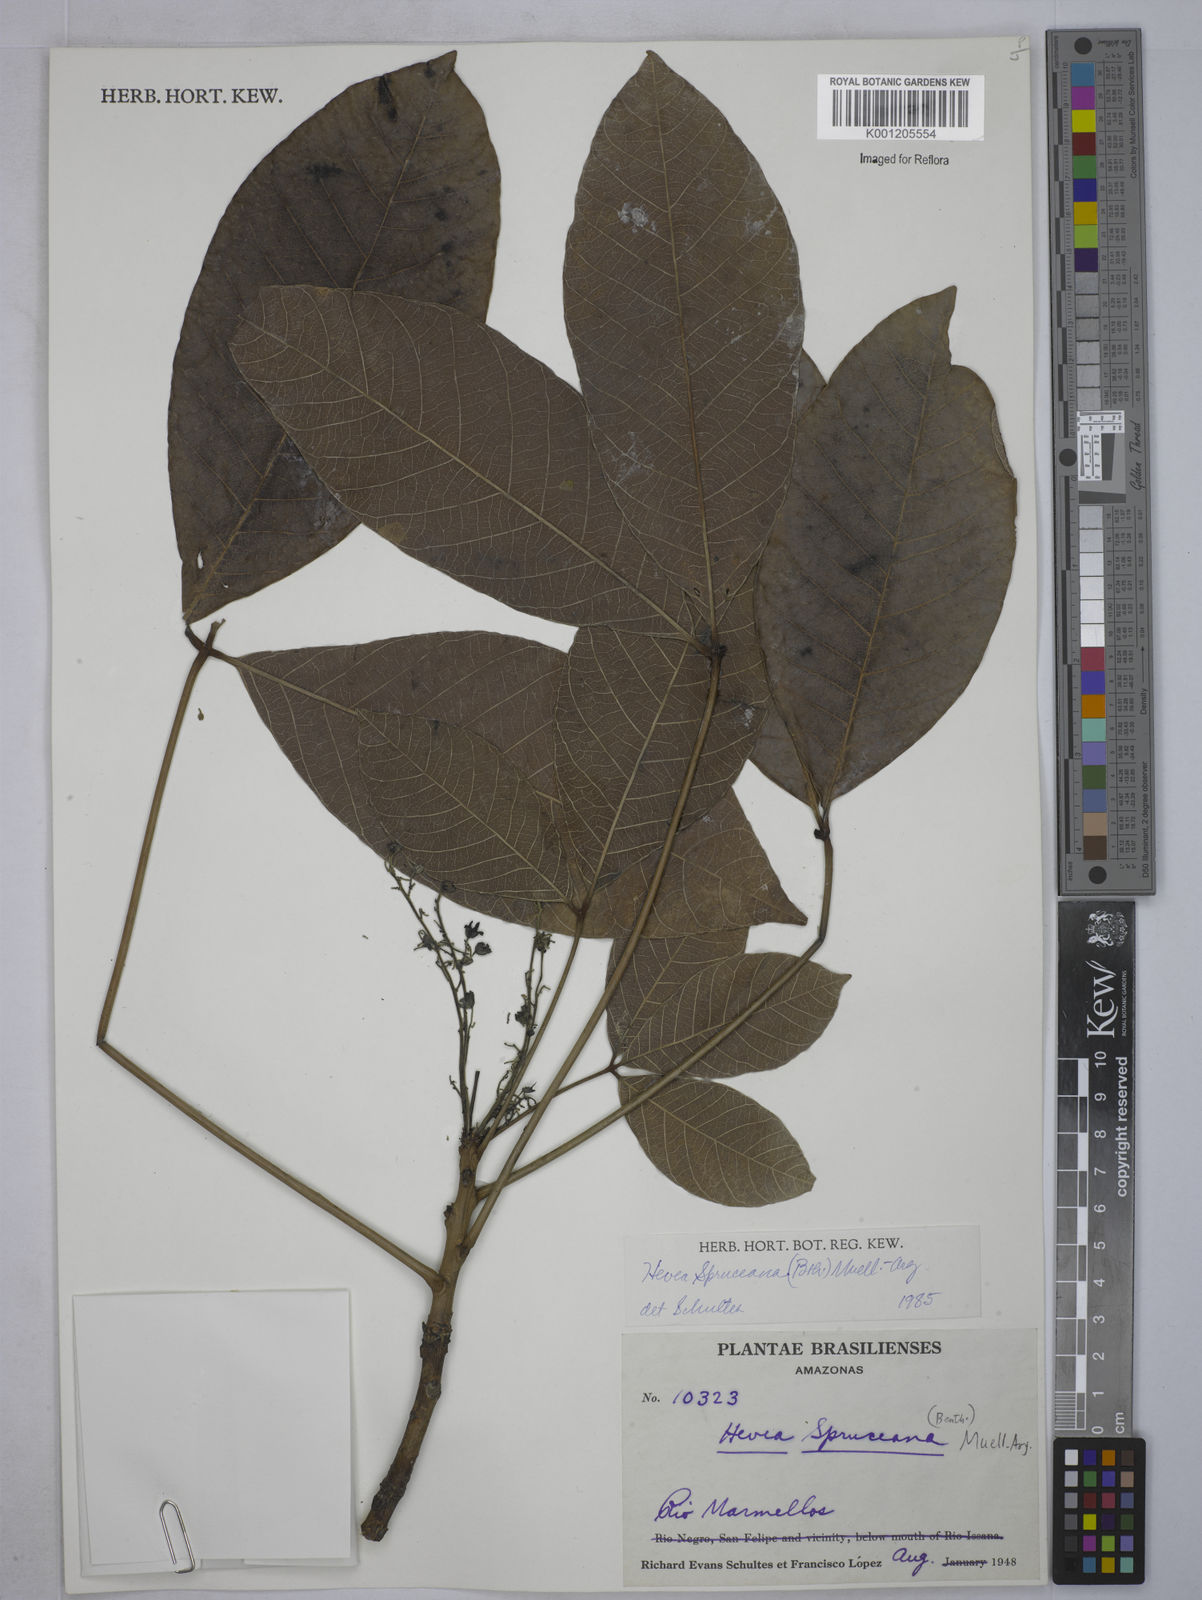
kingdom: Plantae
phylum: Tracheophyta
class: Magnoliopsida
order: Malpighiales
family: Euphorbiaceae
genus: Hevea
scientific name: Hevea
